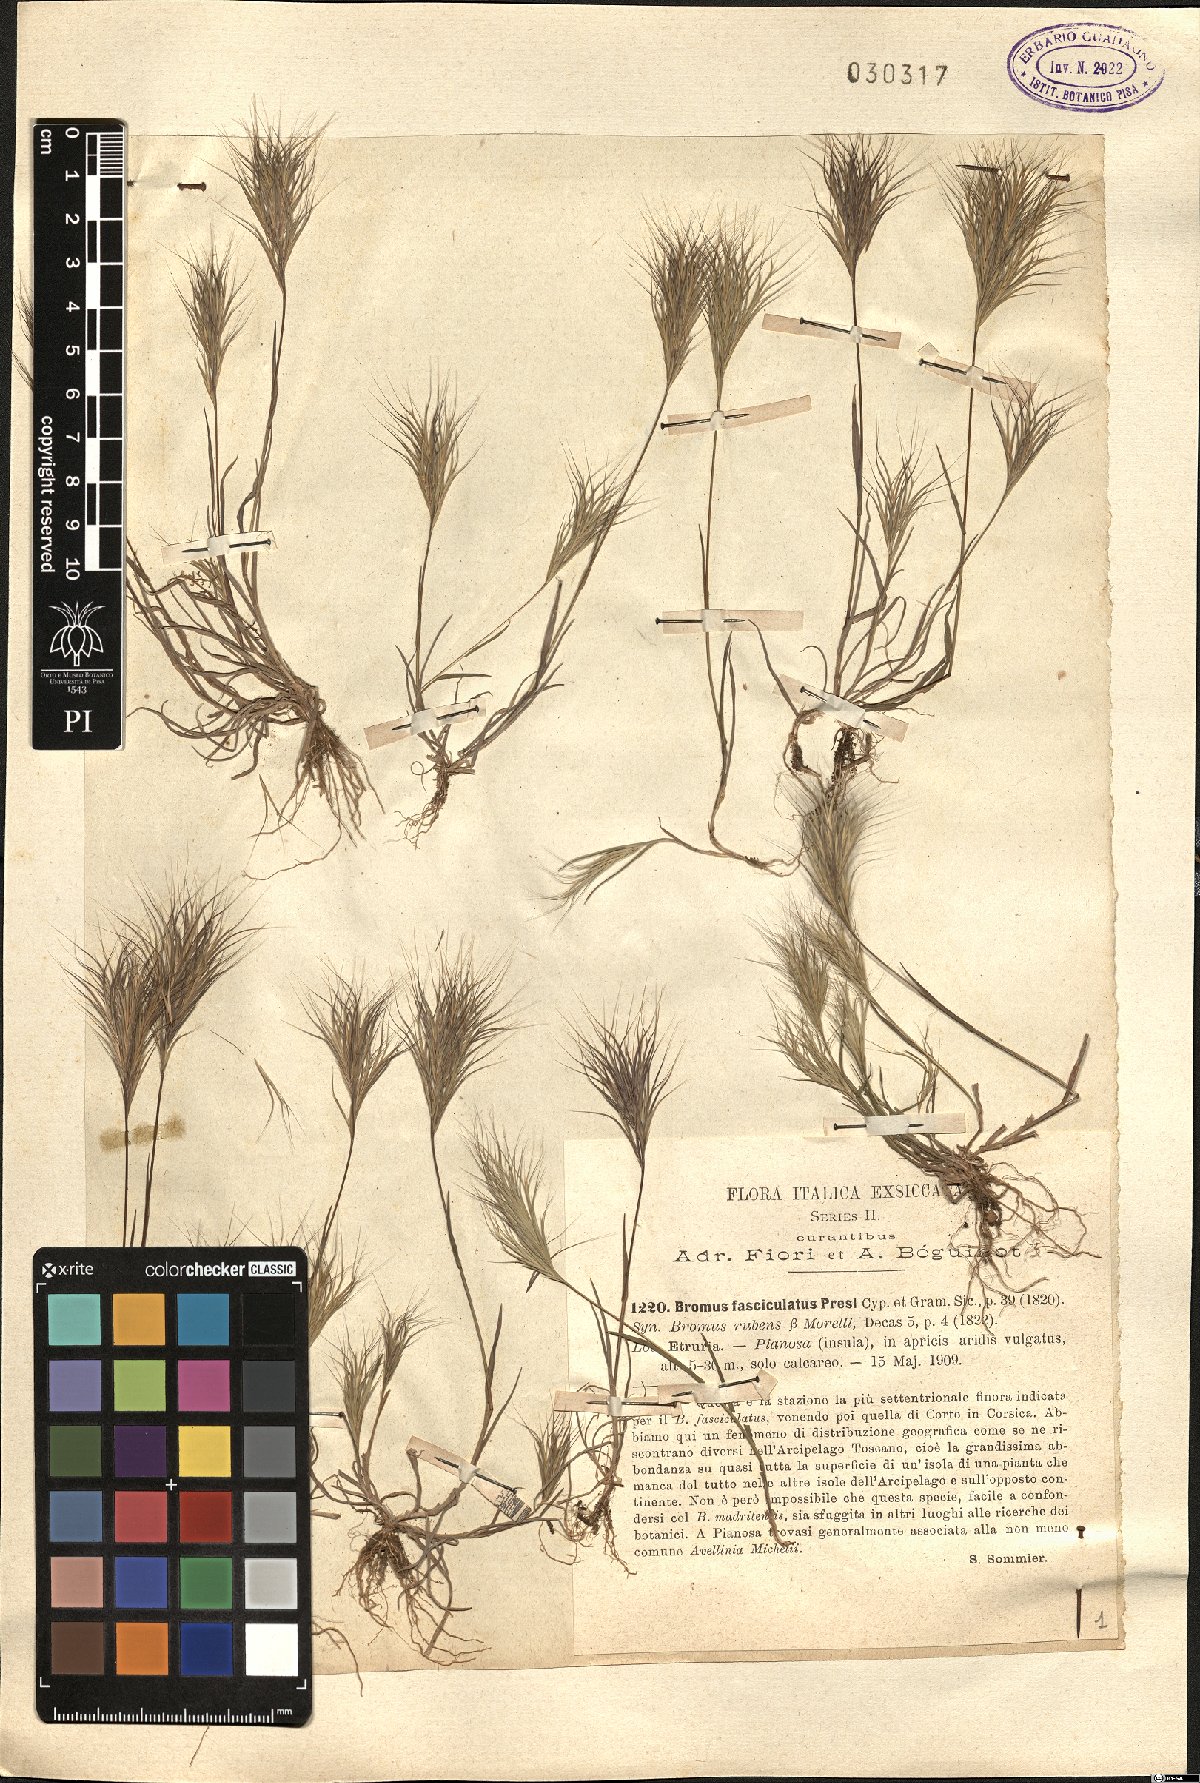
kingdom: Plantae
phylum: Tracheophyta
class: Liliopsida
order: Poales
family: Poaceae
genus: Bromus
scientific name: Bromus fasciculatus
